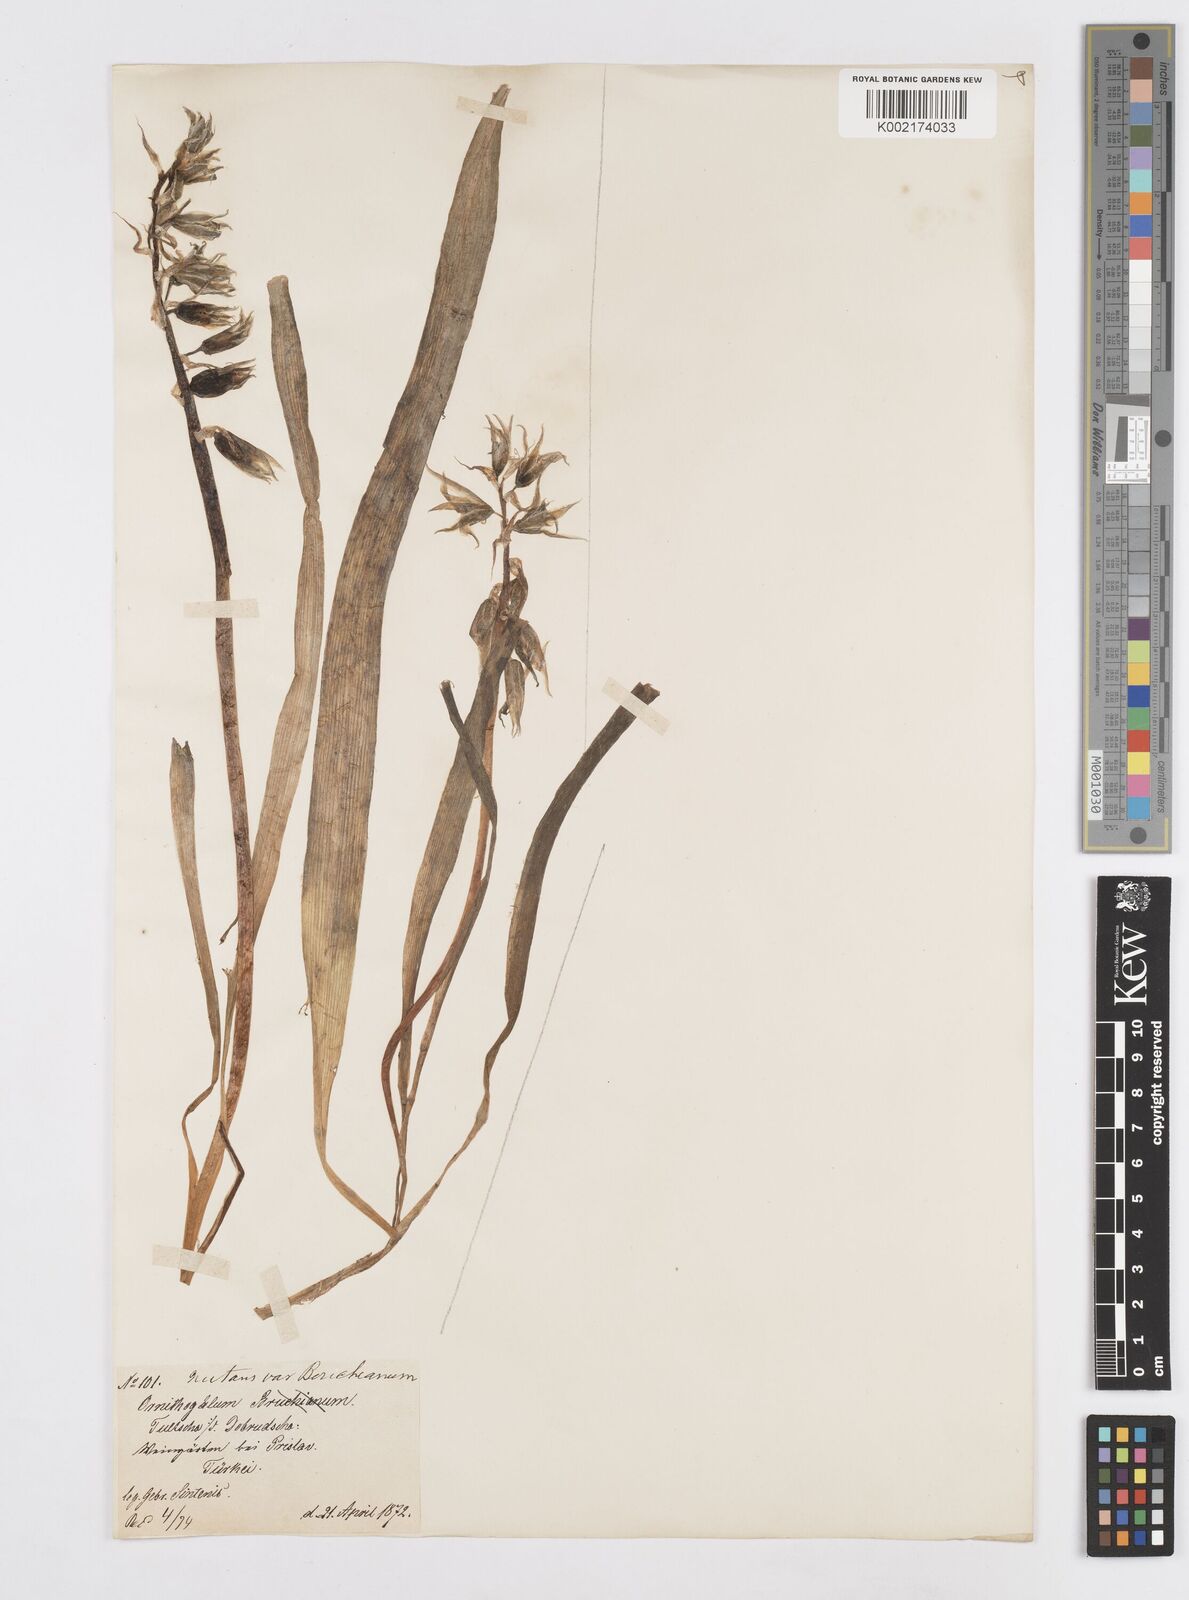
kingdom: Plantae
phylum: Tracheophyta
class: Liliopsida
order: Asparagales
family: Asparagaceae
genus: Ornithogalum
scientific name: Ornithogalum boucheanum
